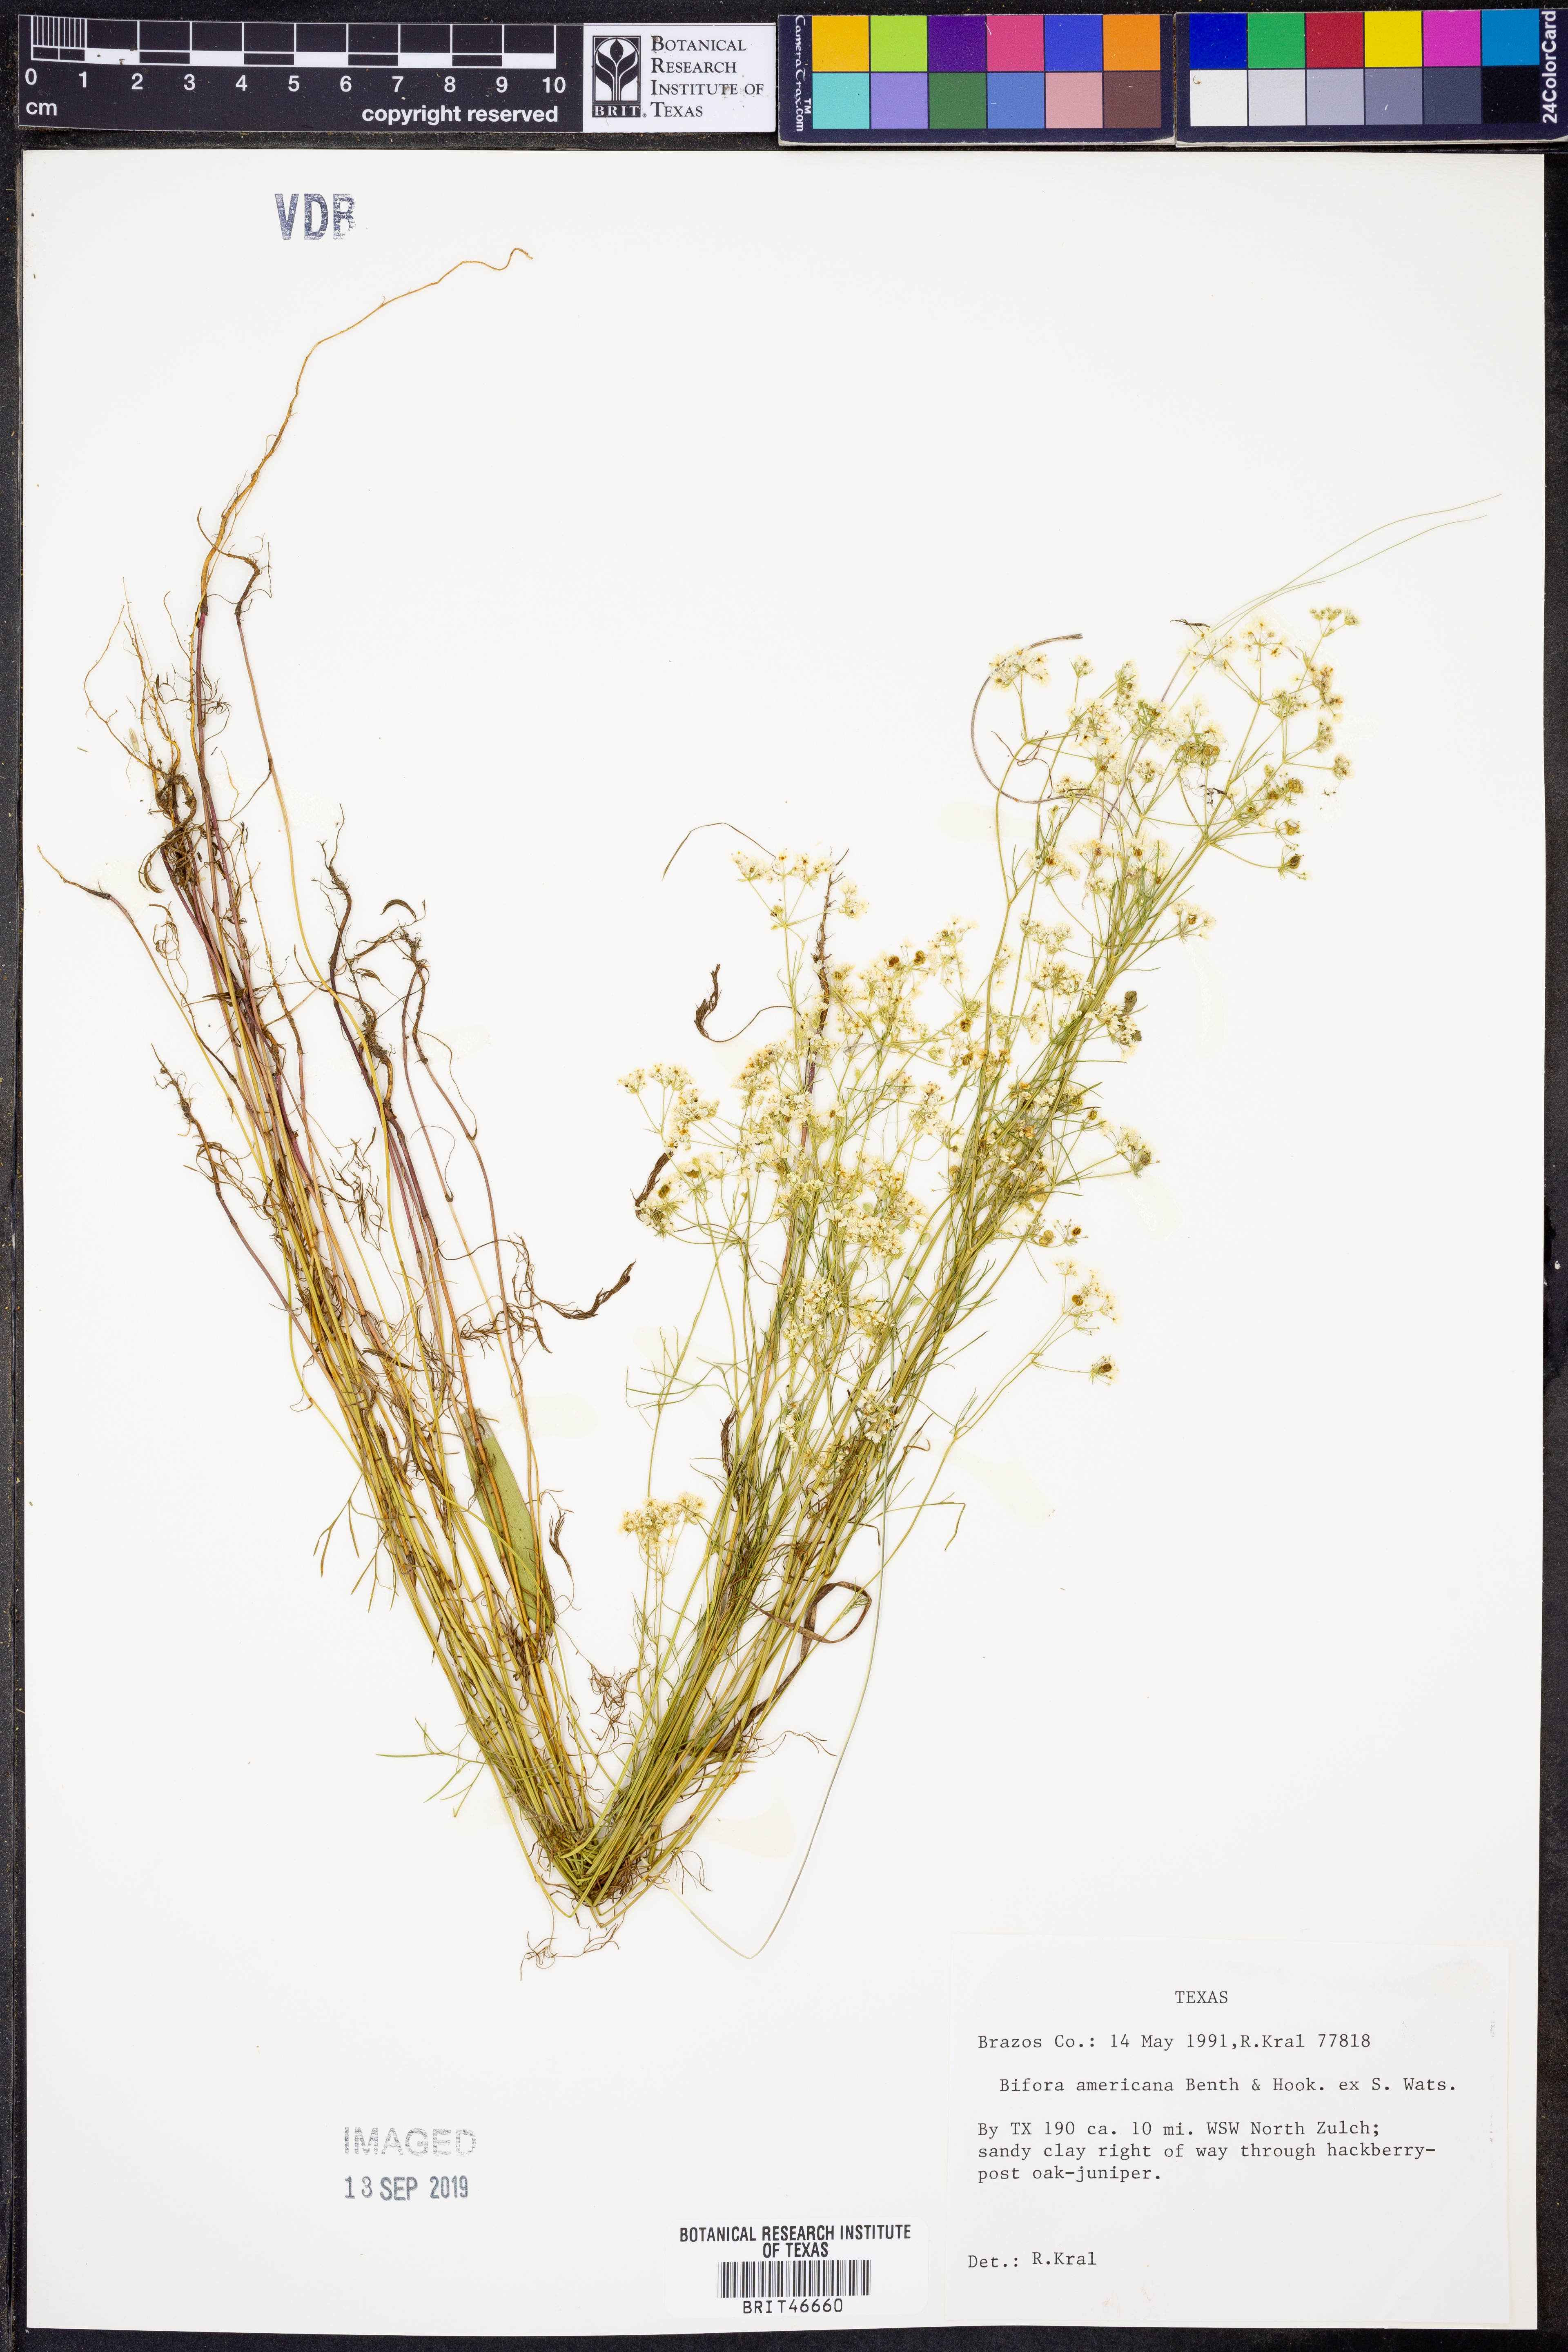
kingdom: Plantae
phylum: Tracheophyta
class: Magnoliopsida
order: Apiales
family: Apiaceae
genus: Atrema
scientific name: Atrema americanum
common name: Prairie-bishop
